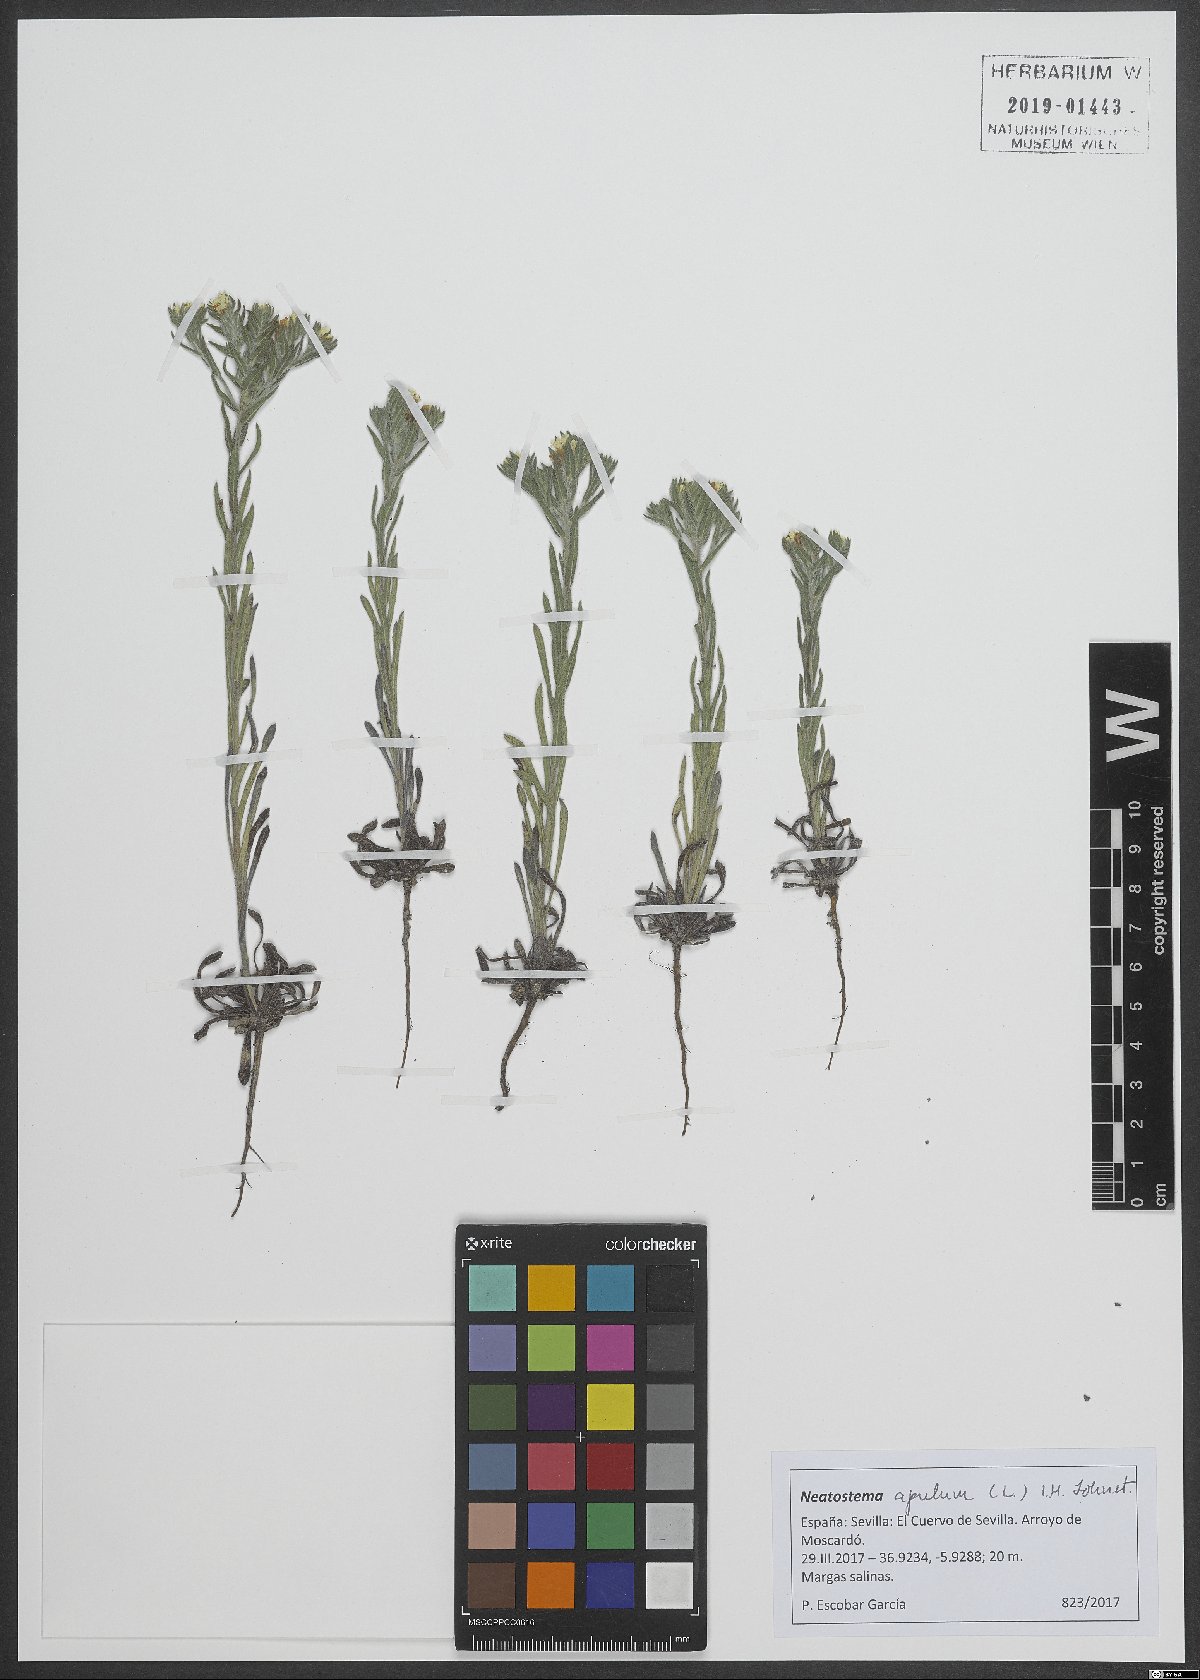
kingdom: Plantae
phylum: Tracheophyta
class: Magnoliopsida
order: Boraginales
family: Boraginaceae
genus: Neatostema
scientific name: Neatostema apulum
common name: Hairy sheepweed
